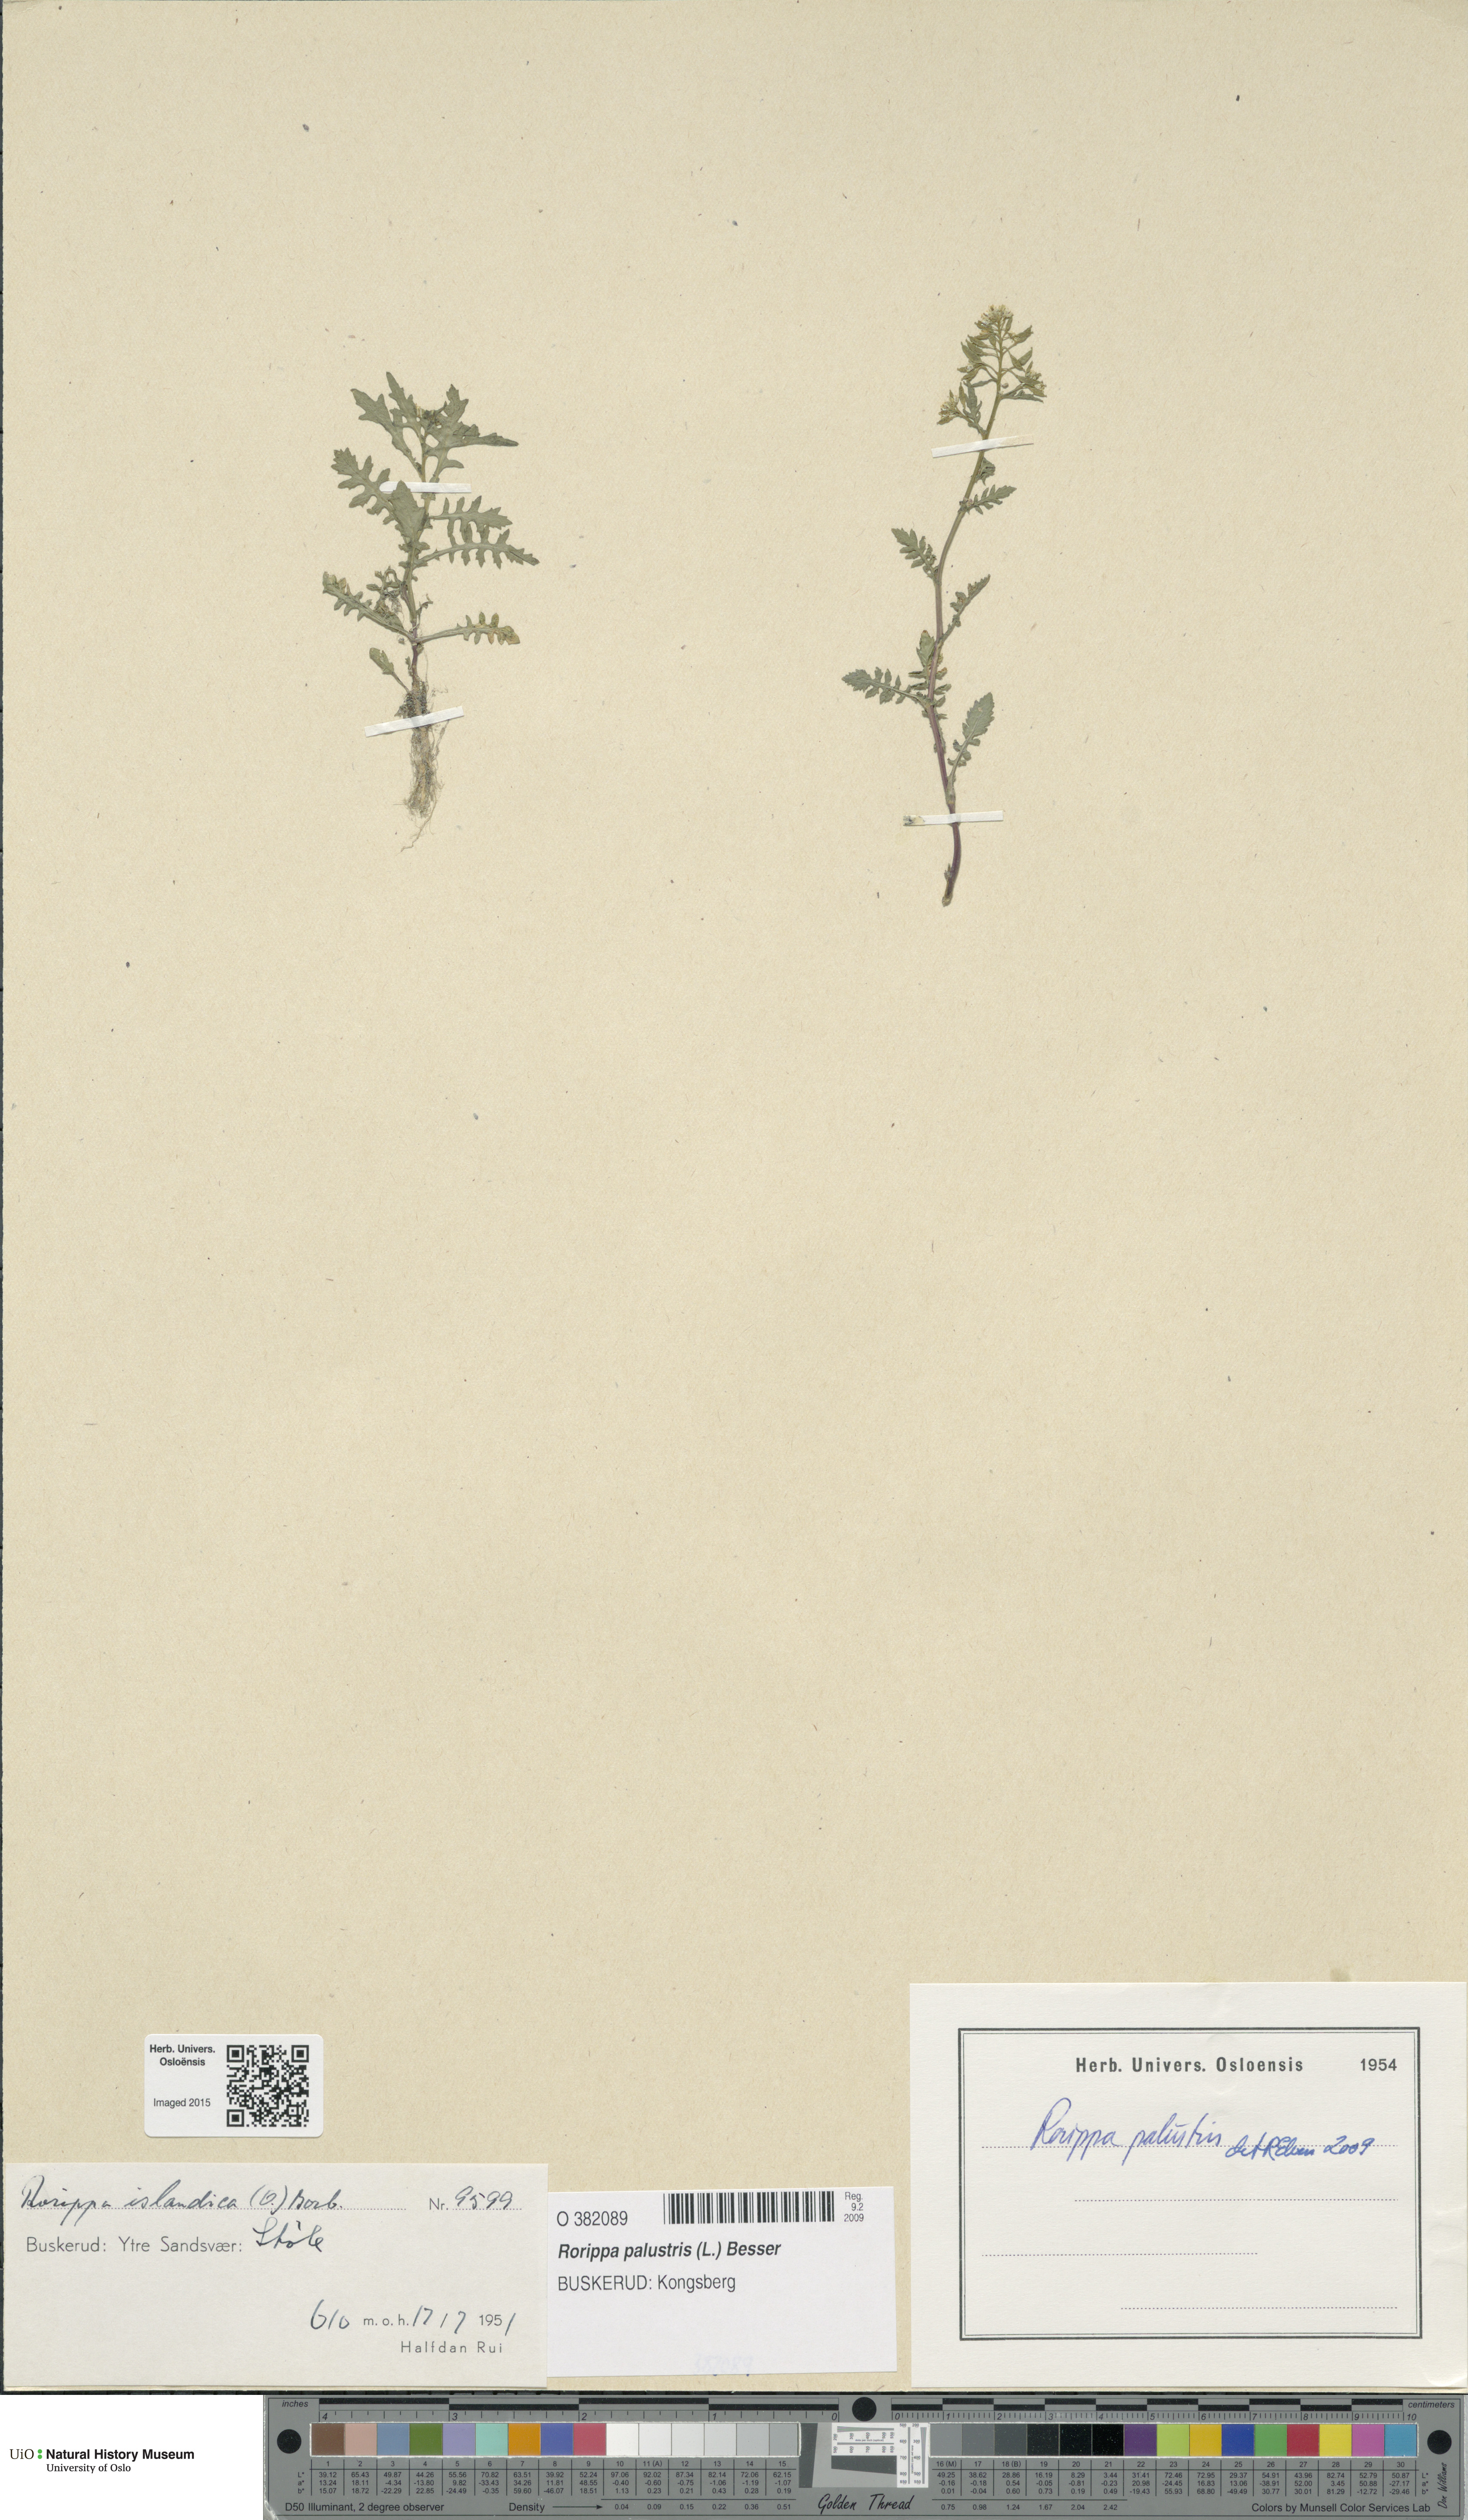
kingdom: Plantae
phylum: Tracheophyta
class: Magnoliopsida
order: Brassicales
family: Brassicaceae
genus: Rorippa
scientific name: Rorippa palustris
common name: Marsh yellow-cress
